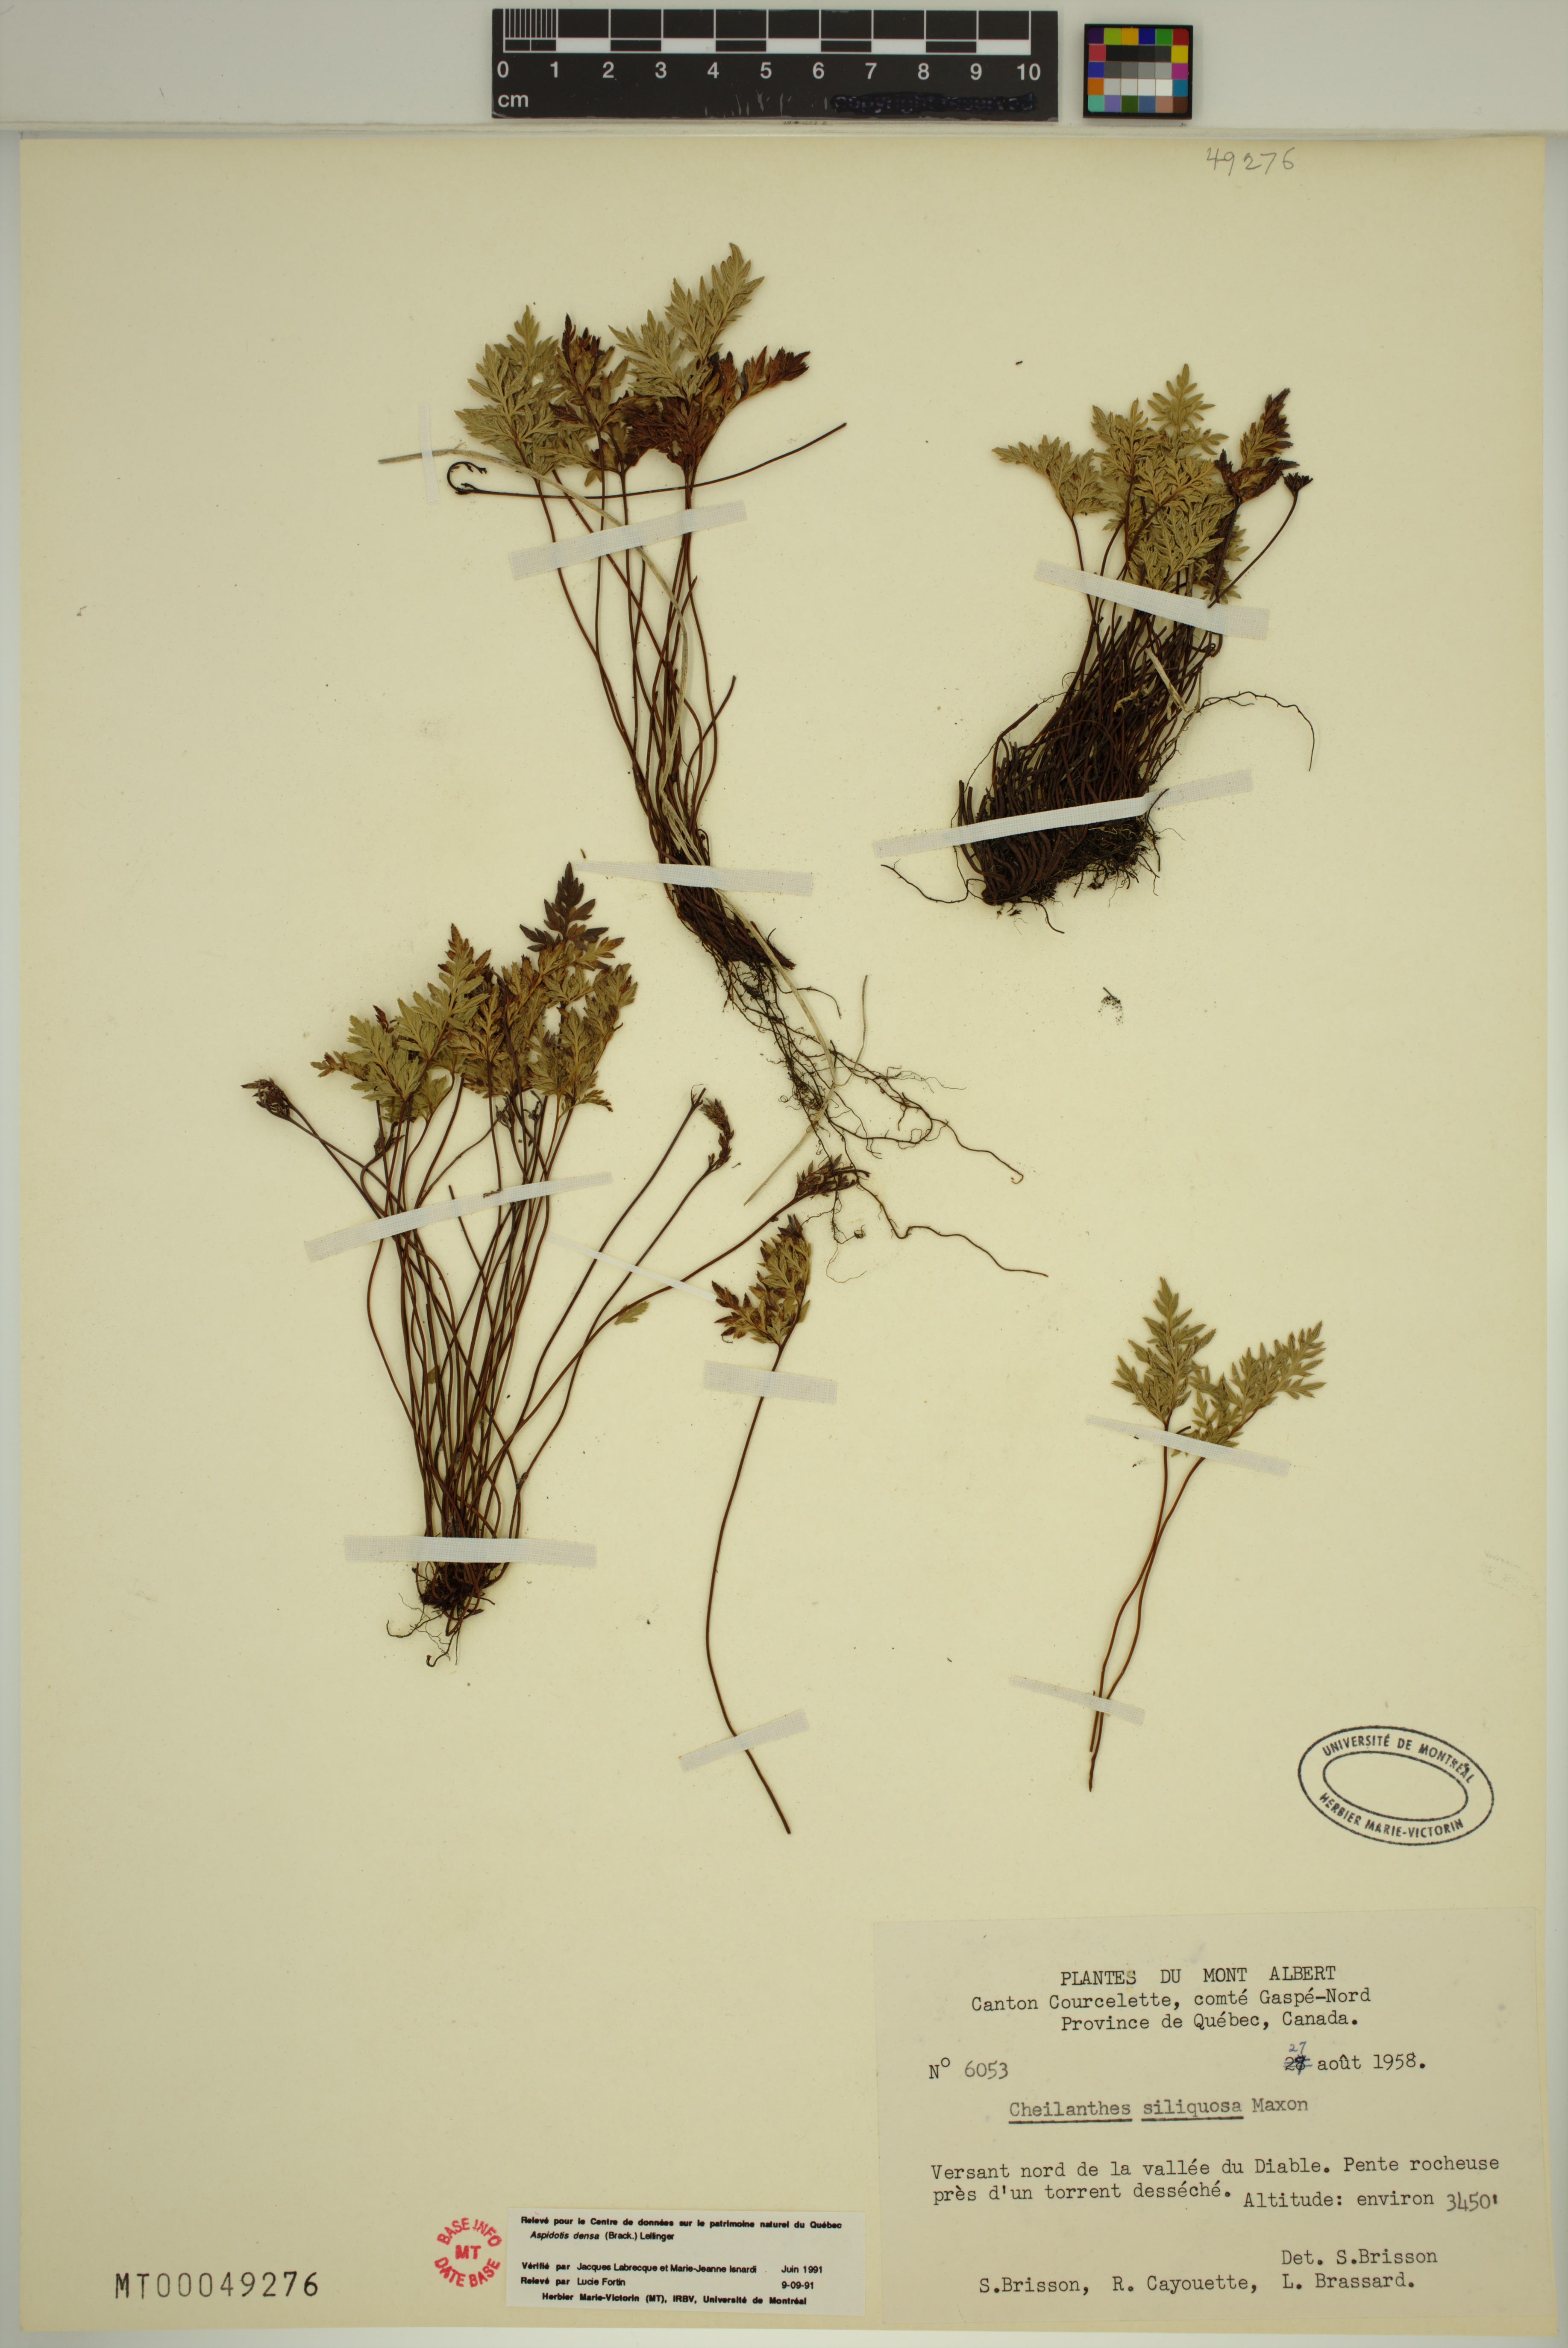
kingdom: Plantae
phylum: Tracheophyta
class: Polypodiopsida
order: Polypodiales
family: Pteridaceae
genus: Aspidotis
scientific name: Aspidotis densa
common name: Indian's dream
